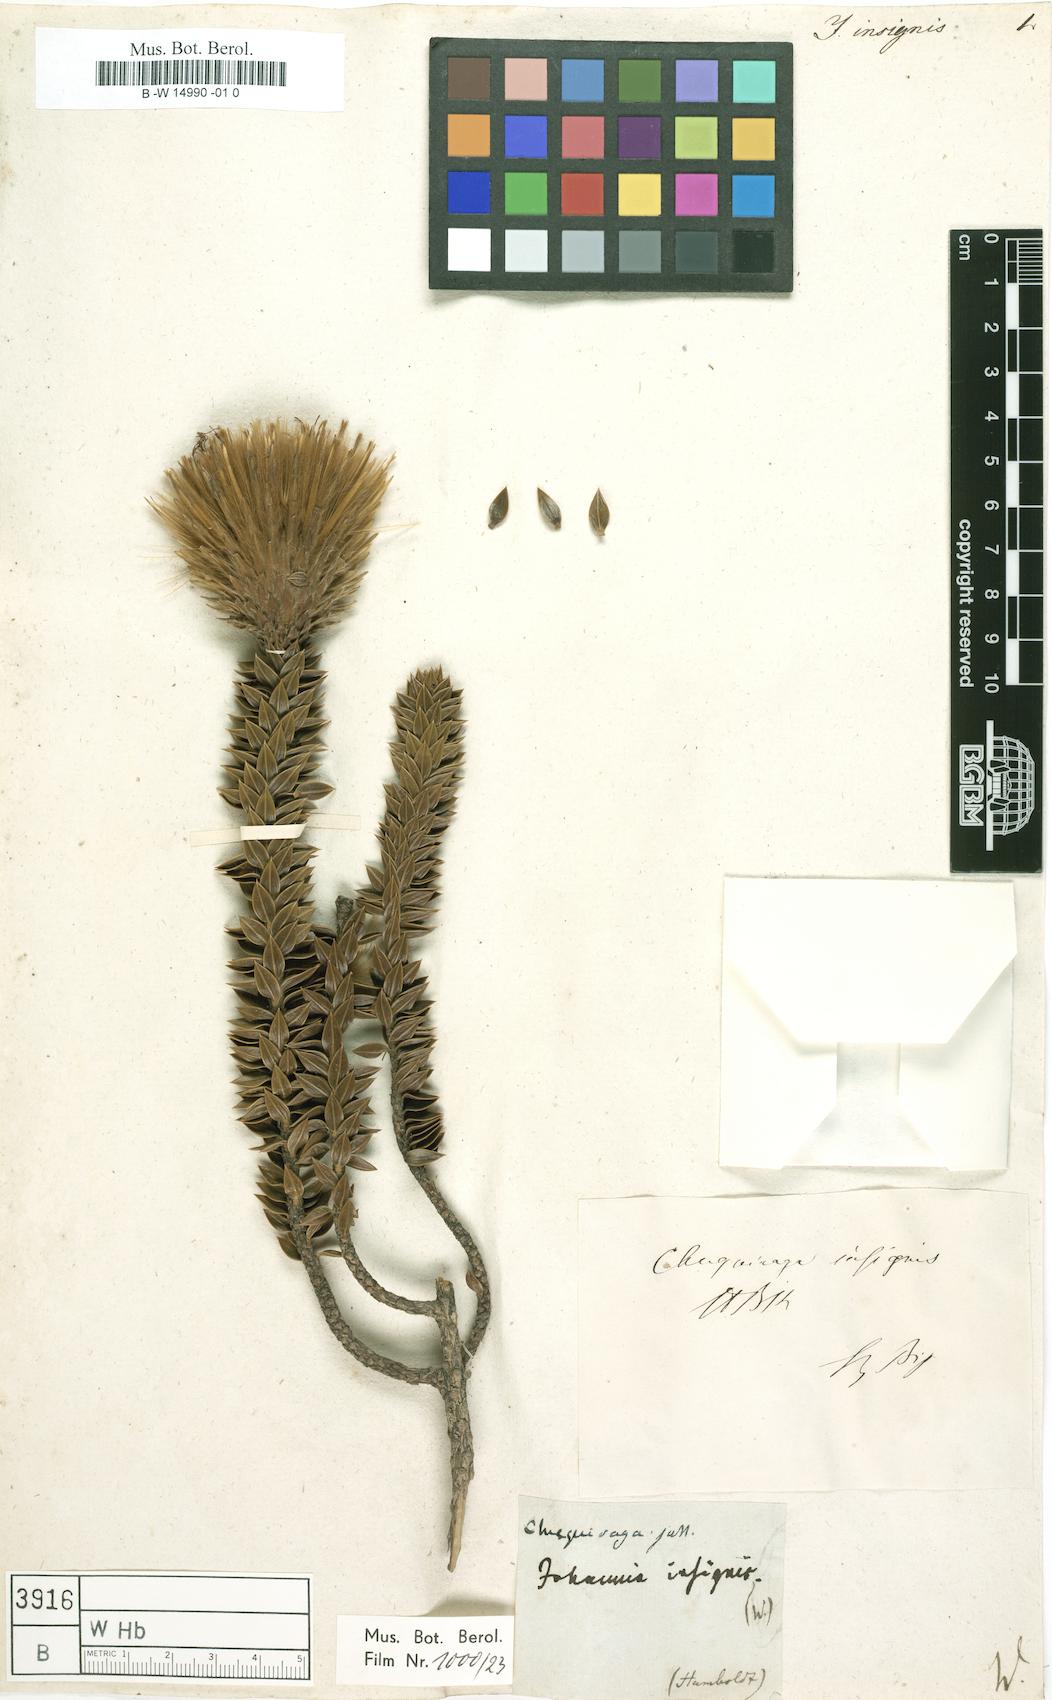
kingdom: Plantae
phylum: Tracheophyta
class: Magnoliopsida
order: Asterales
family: Asteraceae
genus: Chuquiraga
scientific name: Chuquiraga jussieui
